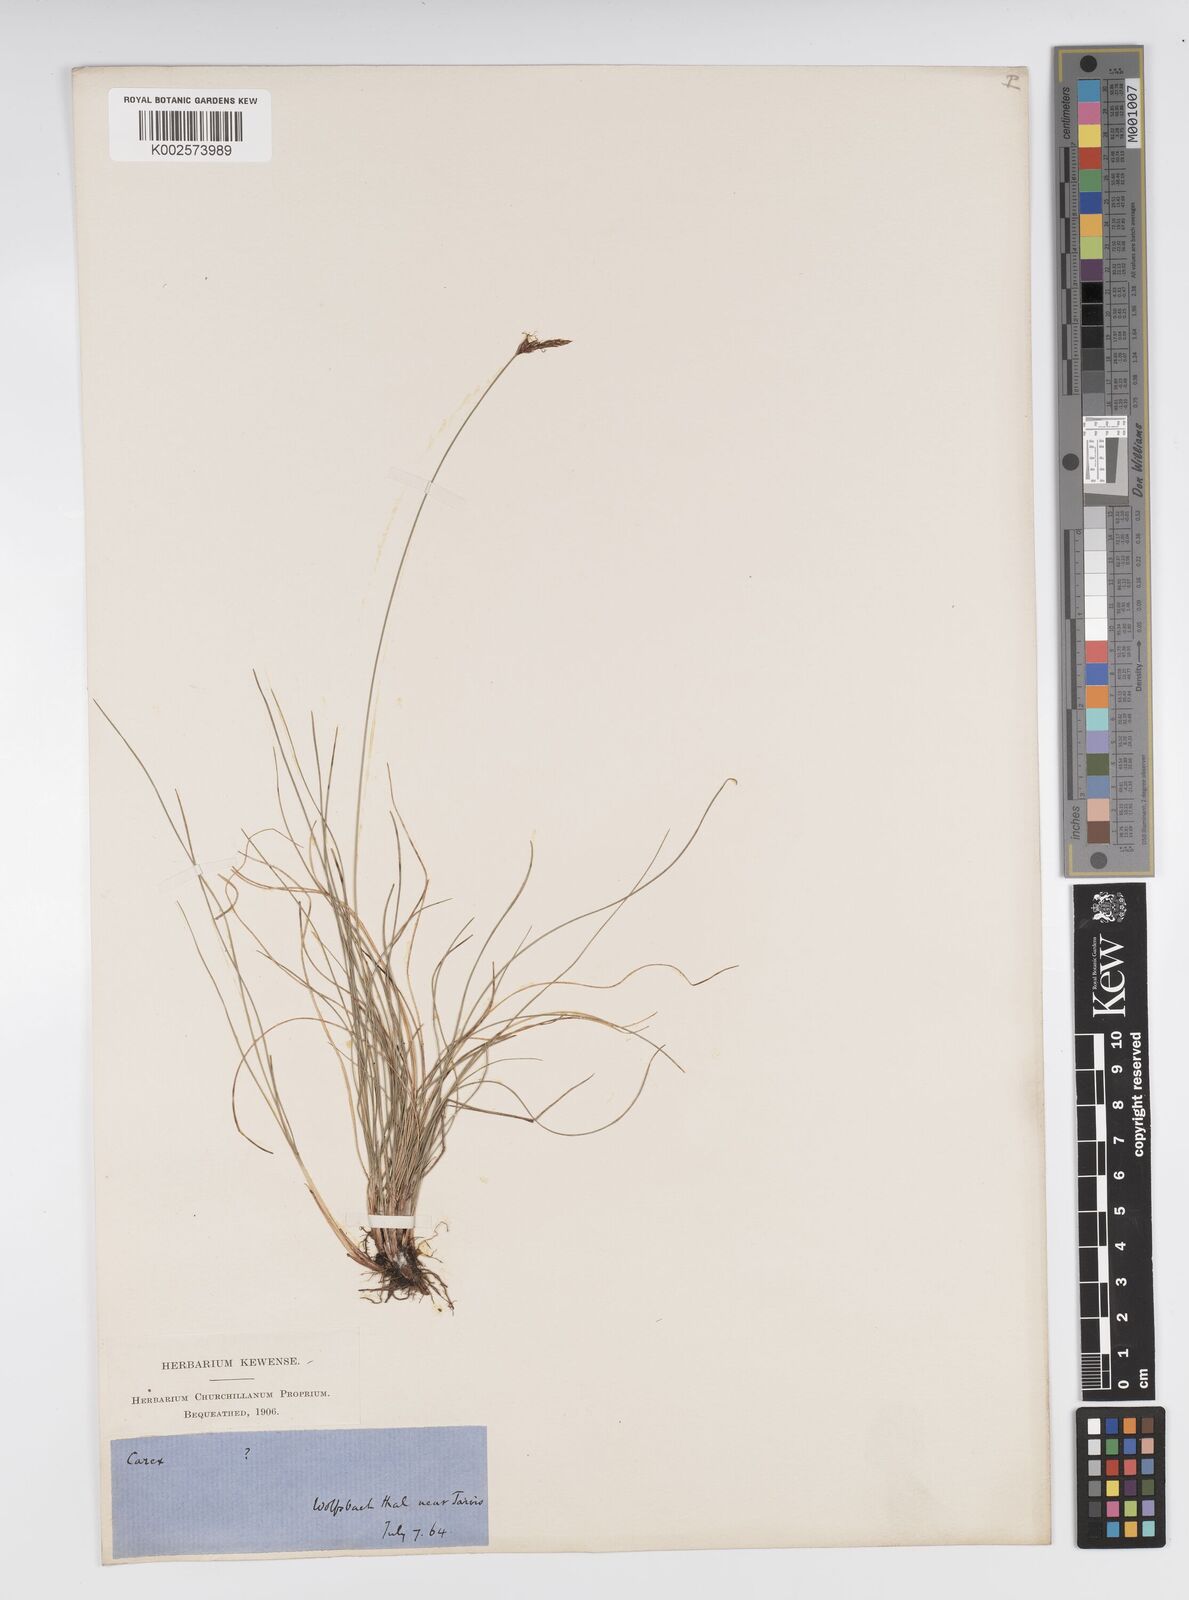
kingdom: Plantae
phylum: Tracheophyta
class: Liliopsida
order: Poales
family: Cyperaceae
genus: Carex
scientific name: Carex mucronata
